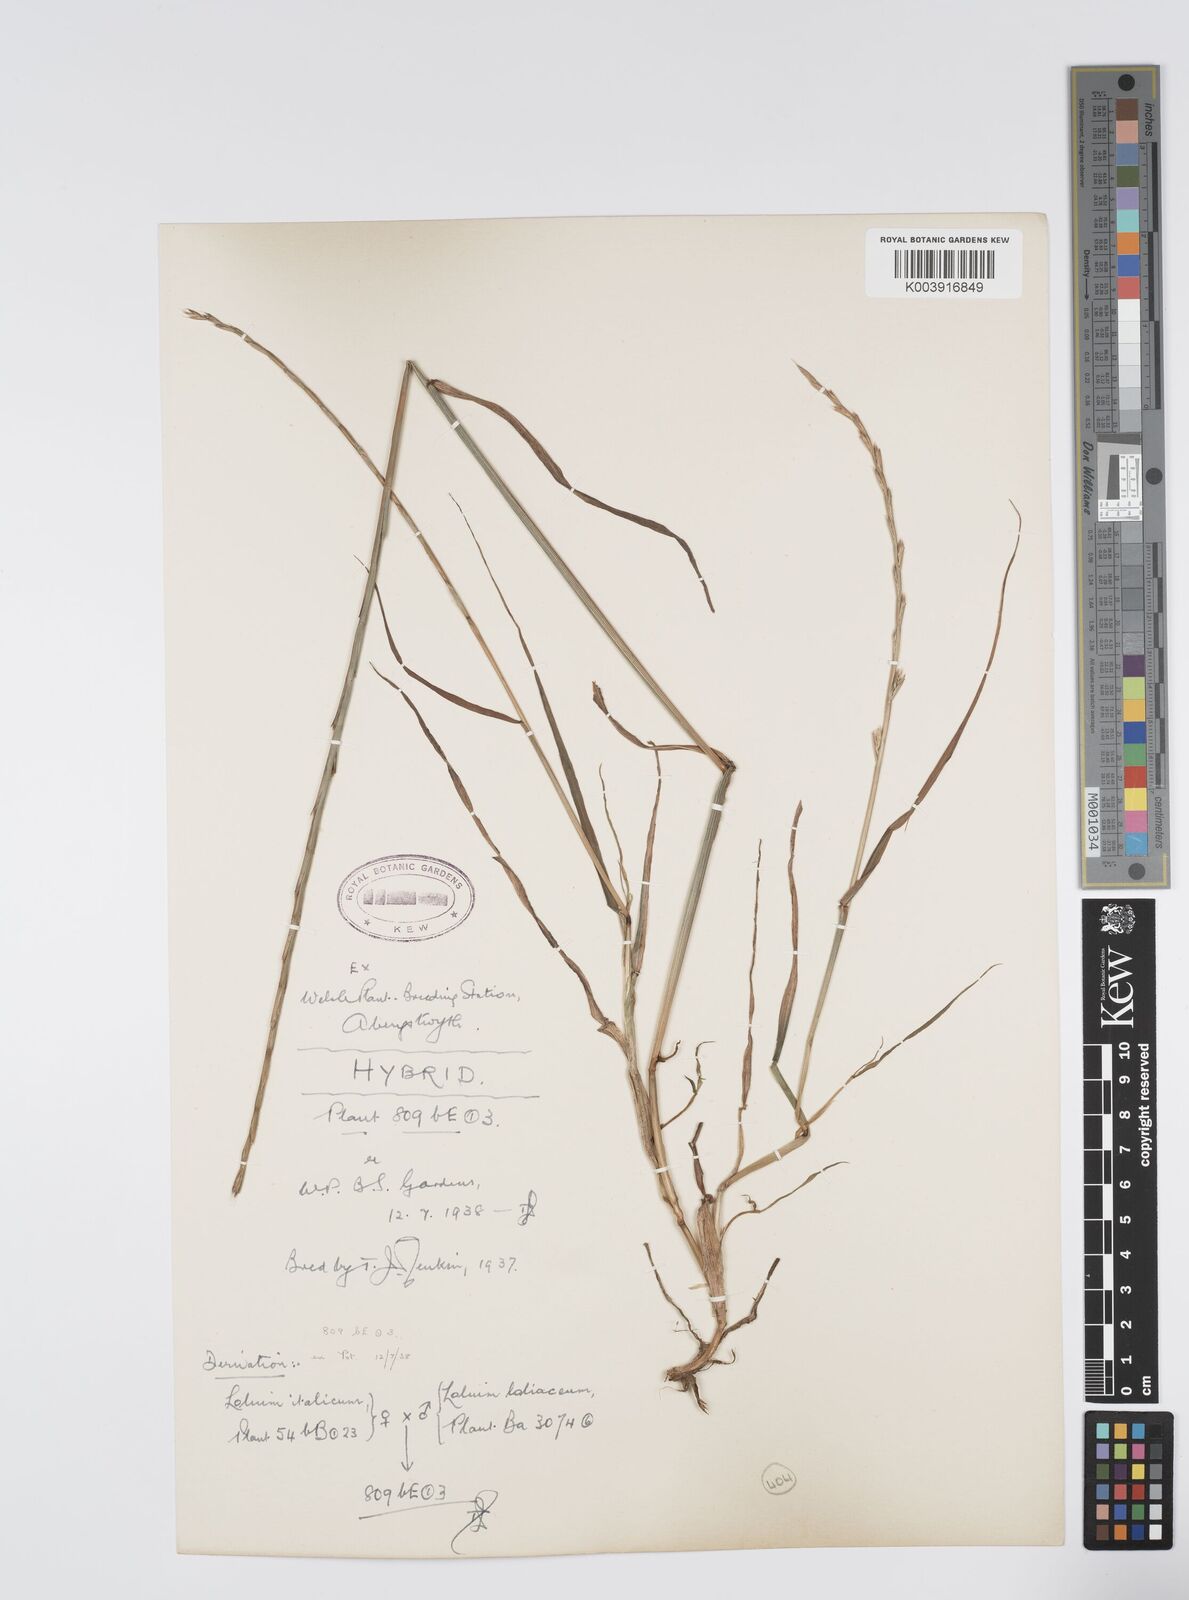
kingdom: Plantae
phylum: Tracheophyta
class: Liliopsida
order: Poales
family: Poaceae
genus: Lolium
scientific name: Lolium multiflorum
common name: Annual ryegrass
